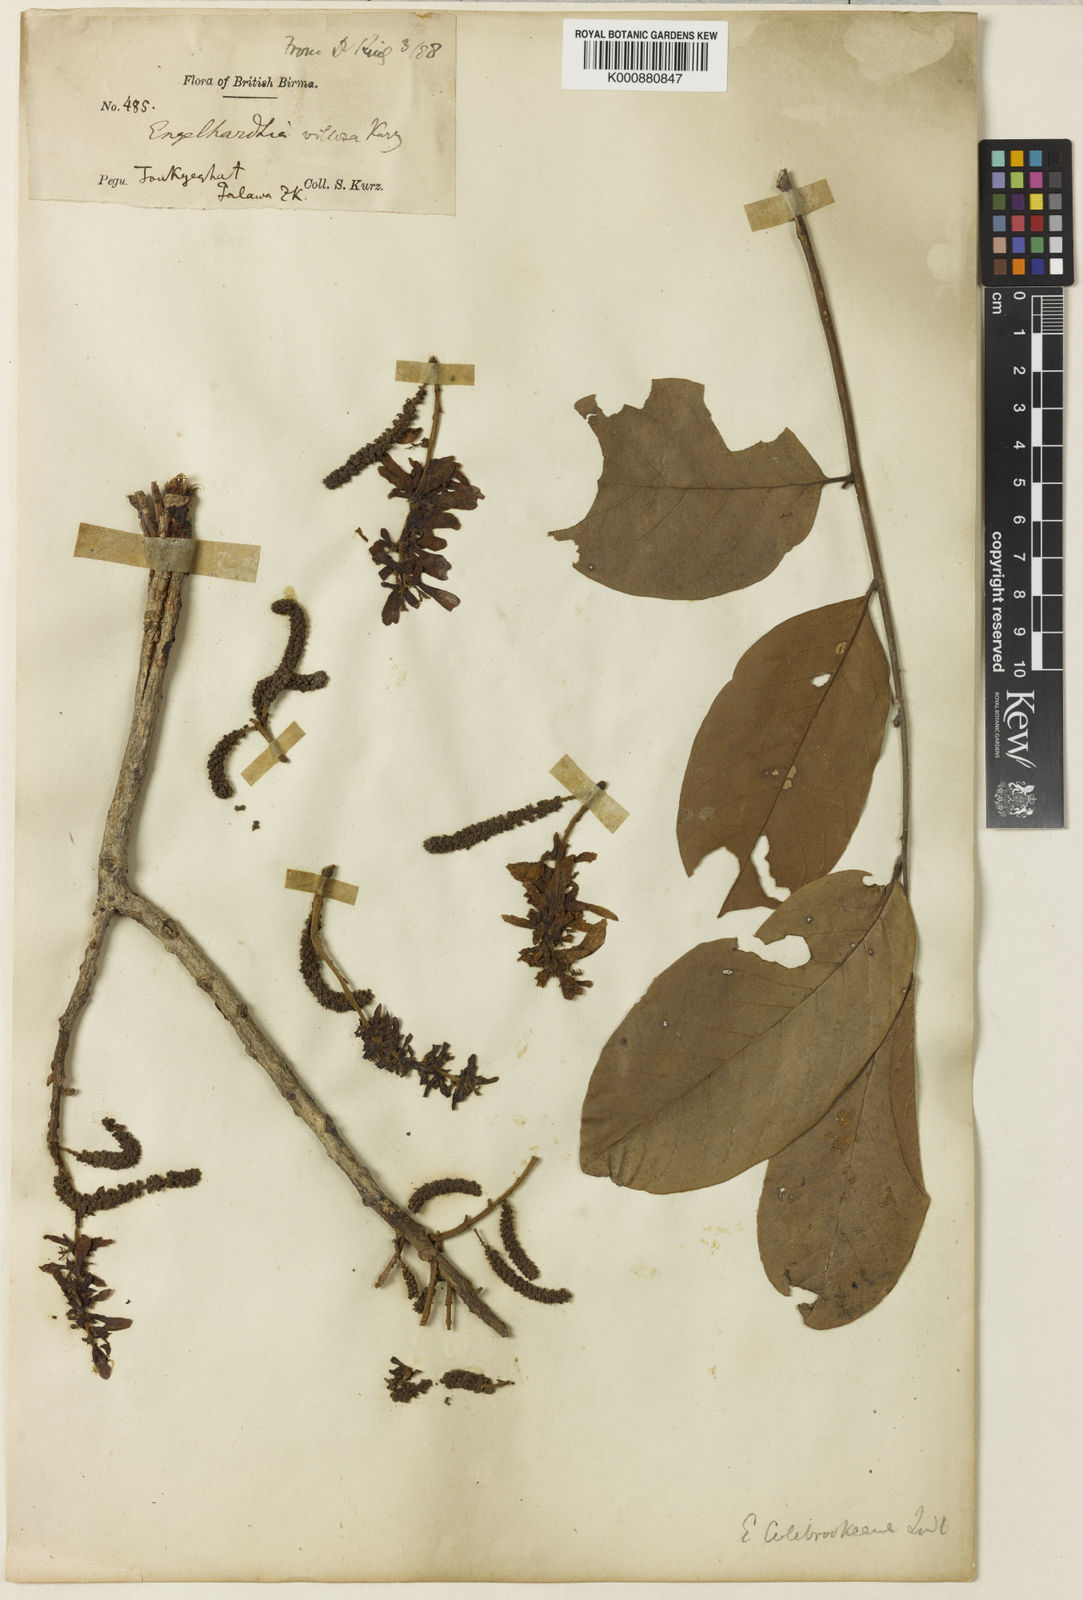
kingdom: Plantae
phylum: Tracheophyta
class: Magnoliopsida
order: Fagales
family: Juglandaceae
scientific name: Juglandaceae
